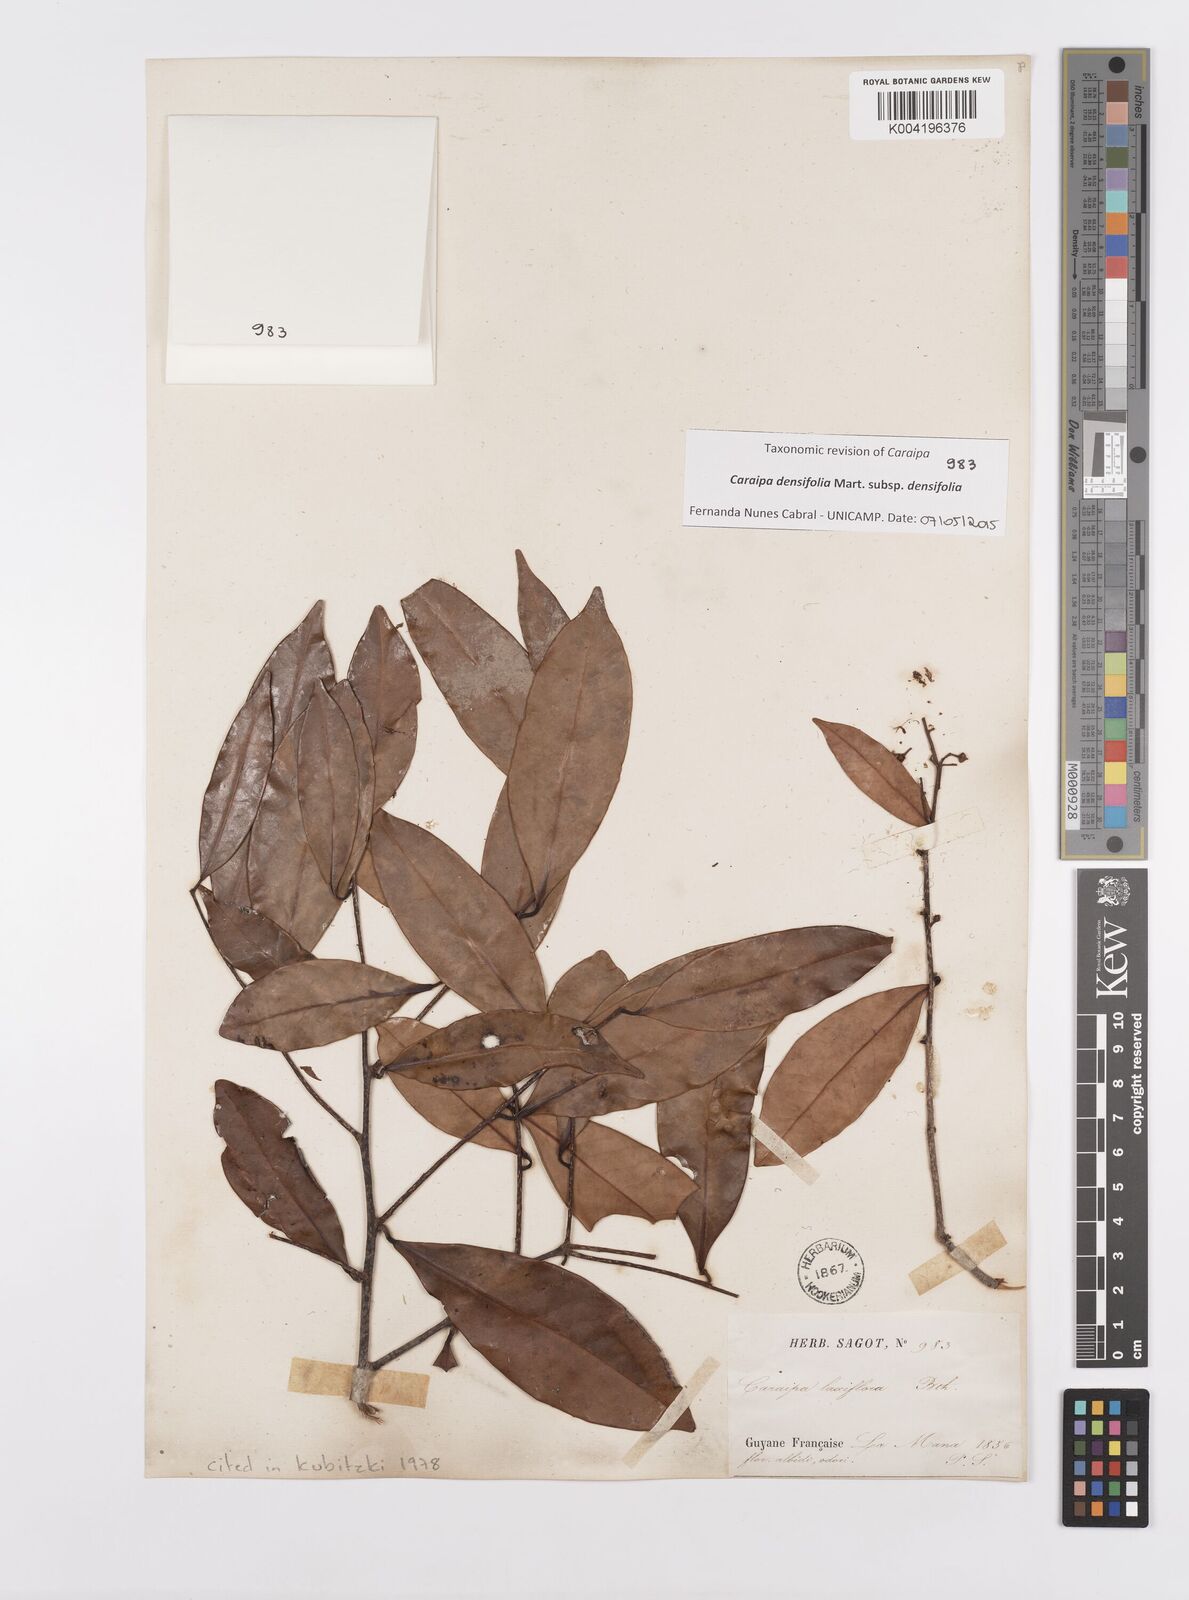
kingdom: Plantae
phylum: Tracheophyta
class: Magnoliopsida
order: Malpighiales
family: Calophyllaceae
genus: Caraipa
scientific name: Caraipa densifolia
